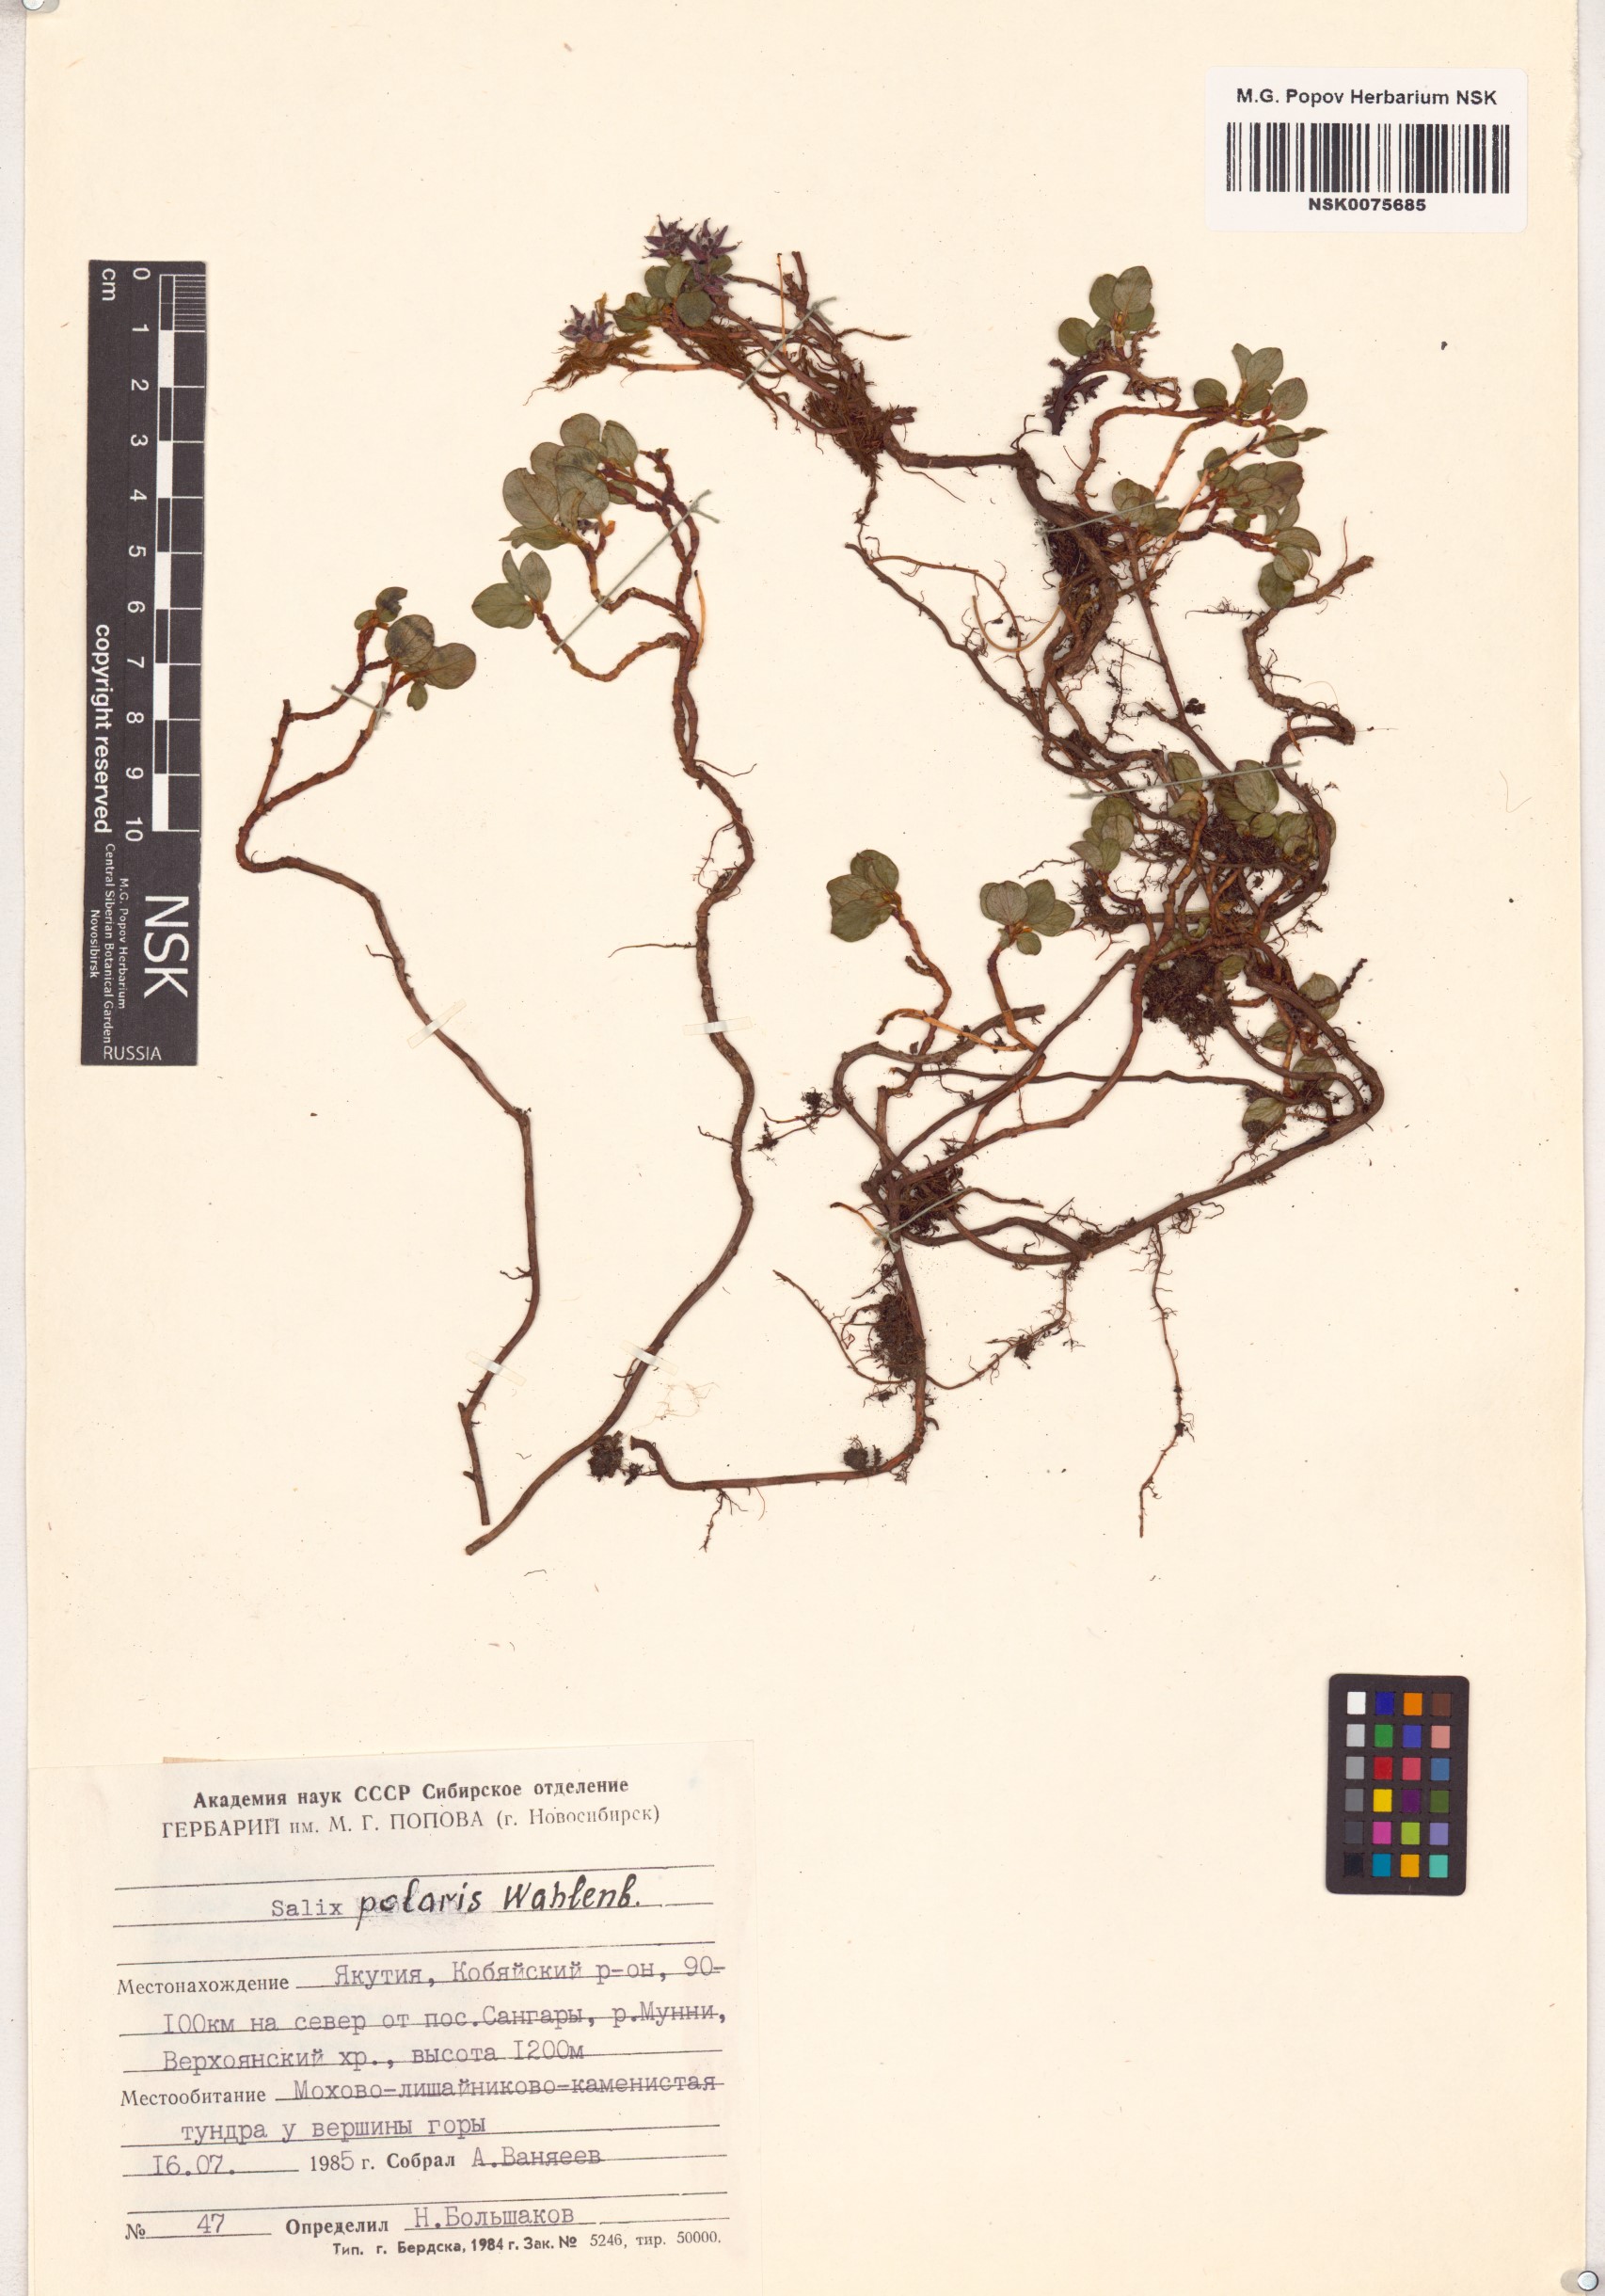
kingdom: Plantae
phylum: Tracheophyta
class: Magnoliopsida
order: Malpighiales
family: Salicaceae
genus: Salix
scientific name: Salix polaris
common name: Polar willow
